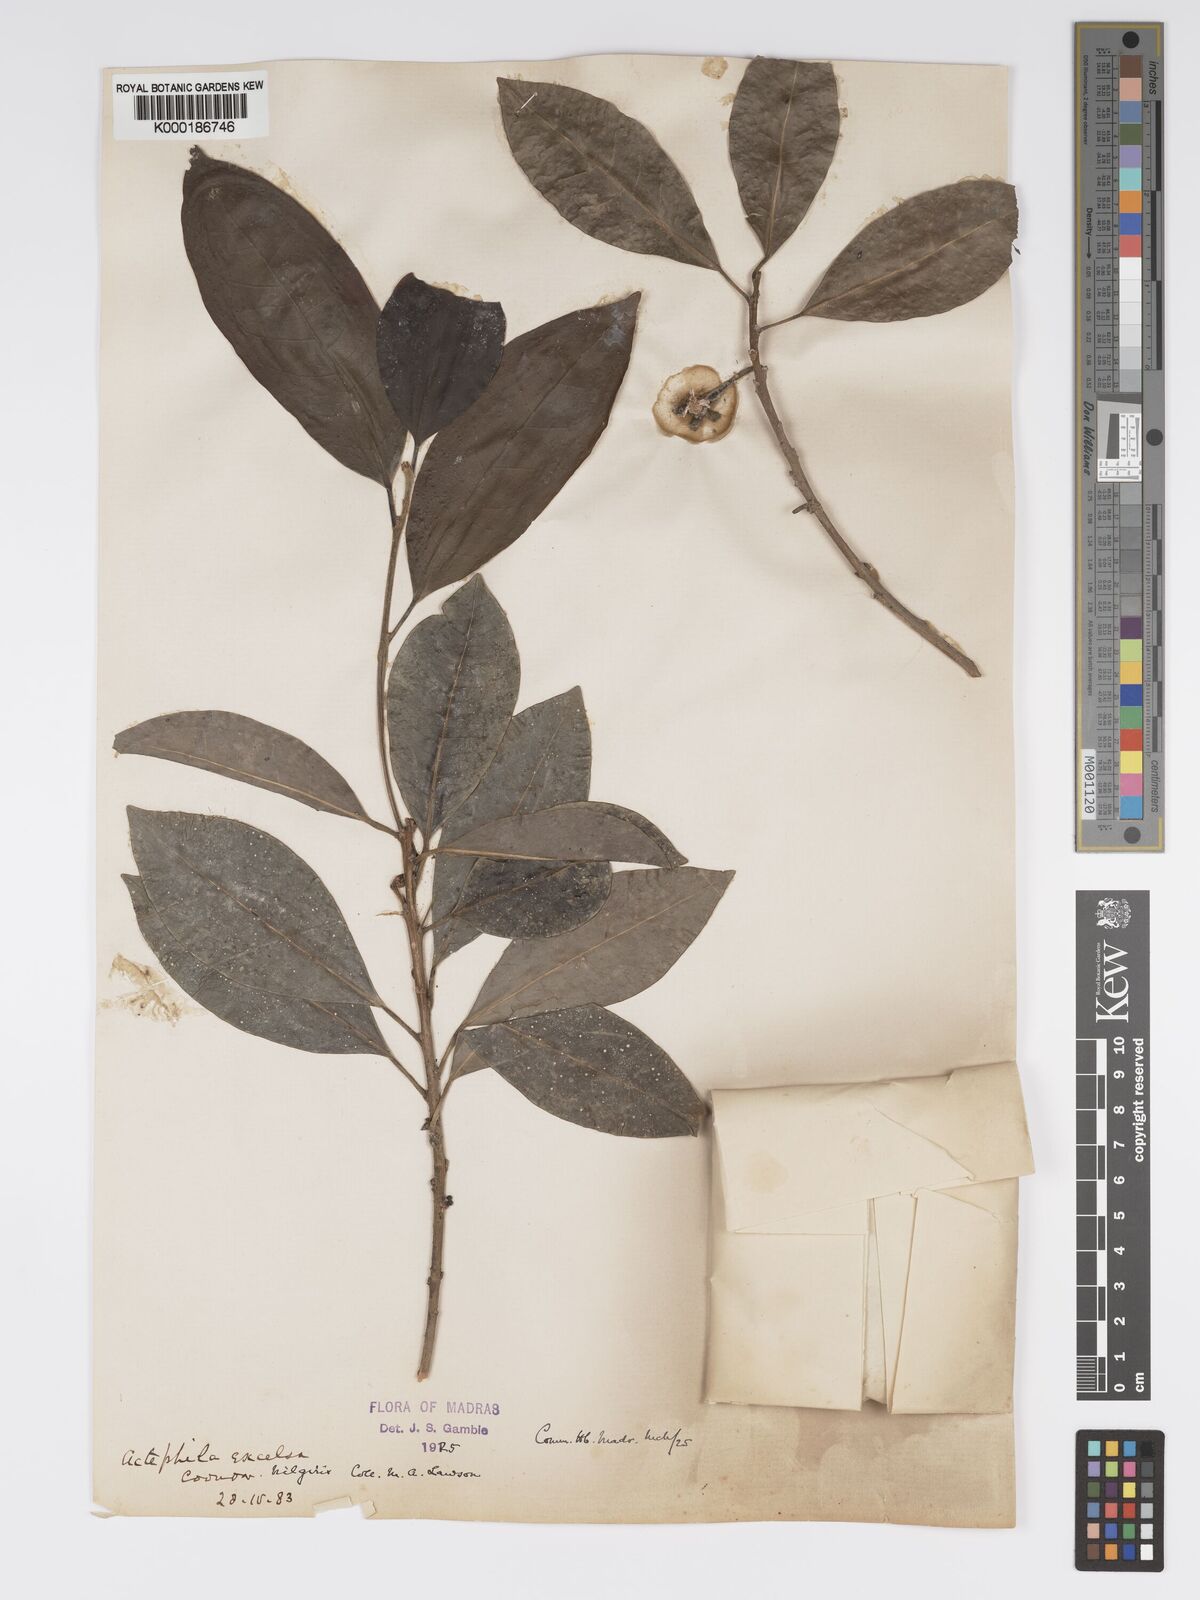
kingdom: Plantae
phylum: Tracheophyta
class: Magnoliopsida
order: Malpighiales
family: Phyllanthaceae
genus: Actephila
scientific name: Actephila excelsa
